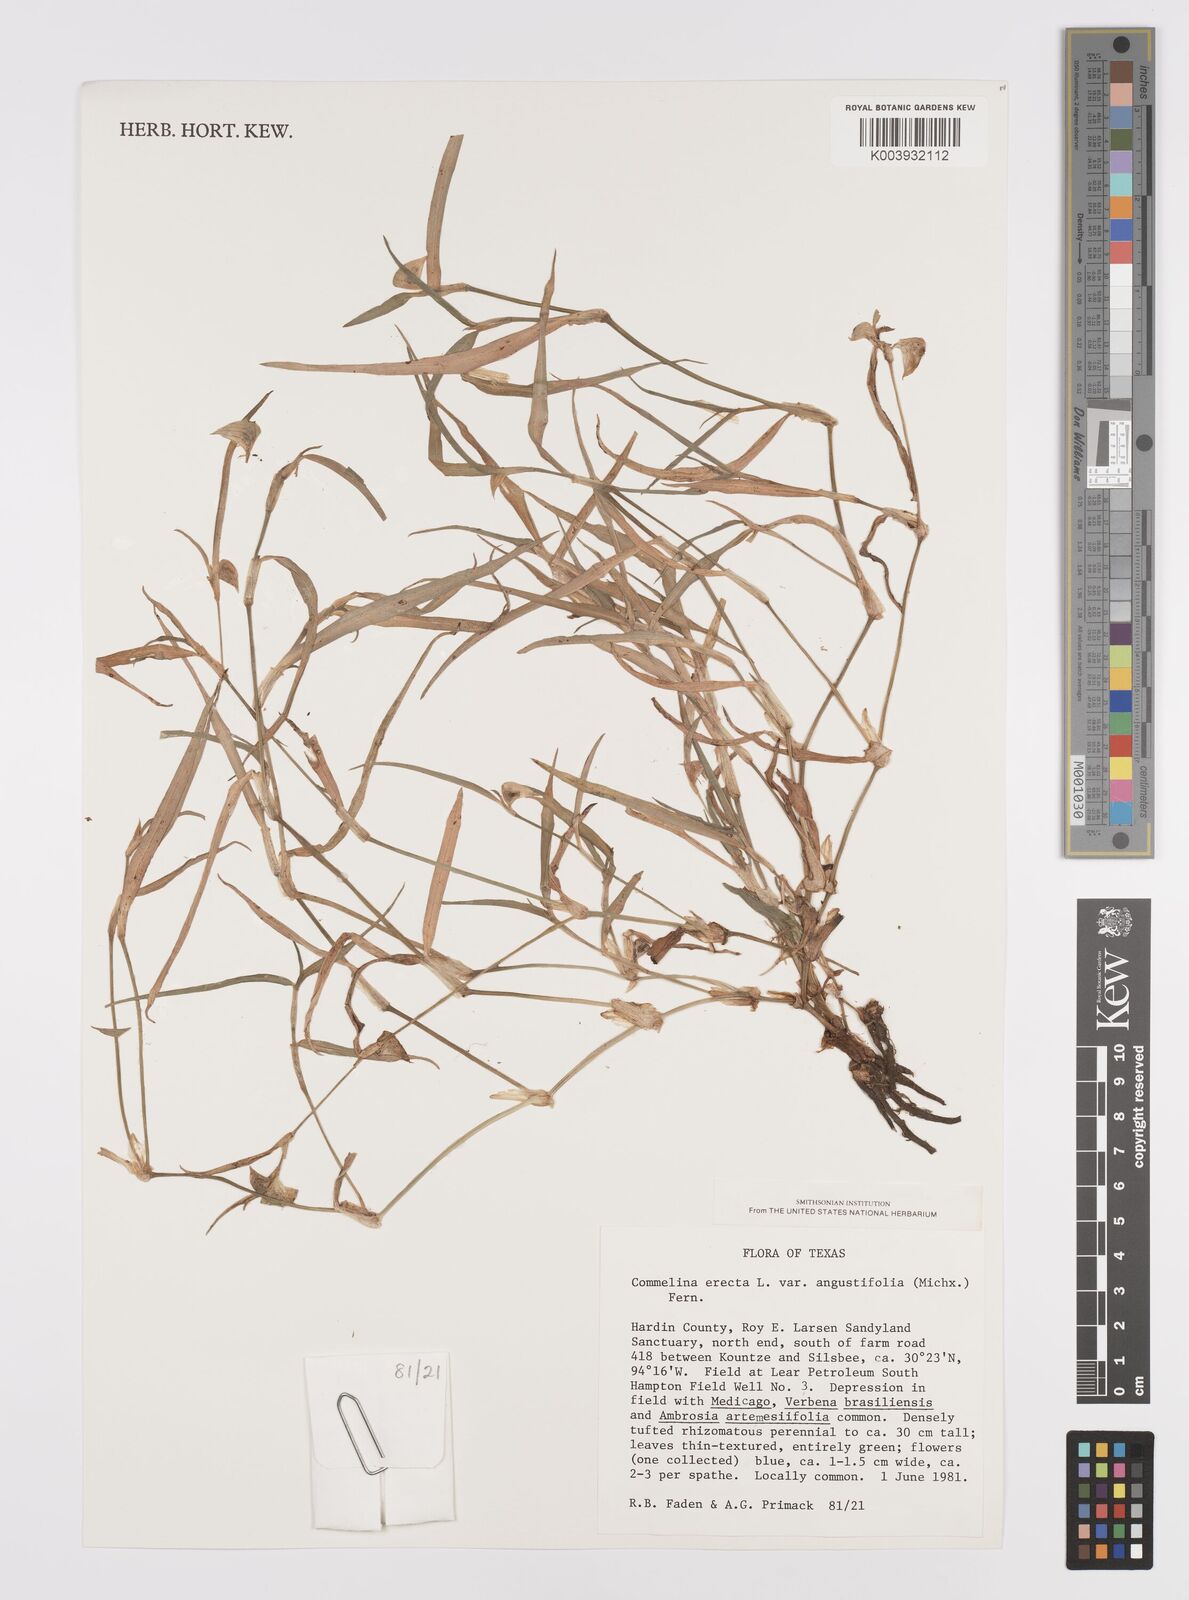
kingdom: Plantae
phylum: Tracheophyta
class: Liliopsida
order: Commelinales
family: Commelinaceae
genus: Commelina
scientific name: Commelina erecta
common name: Blousel blommetjie
